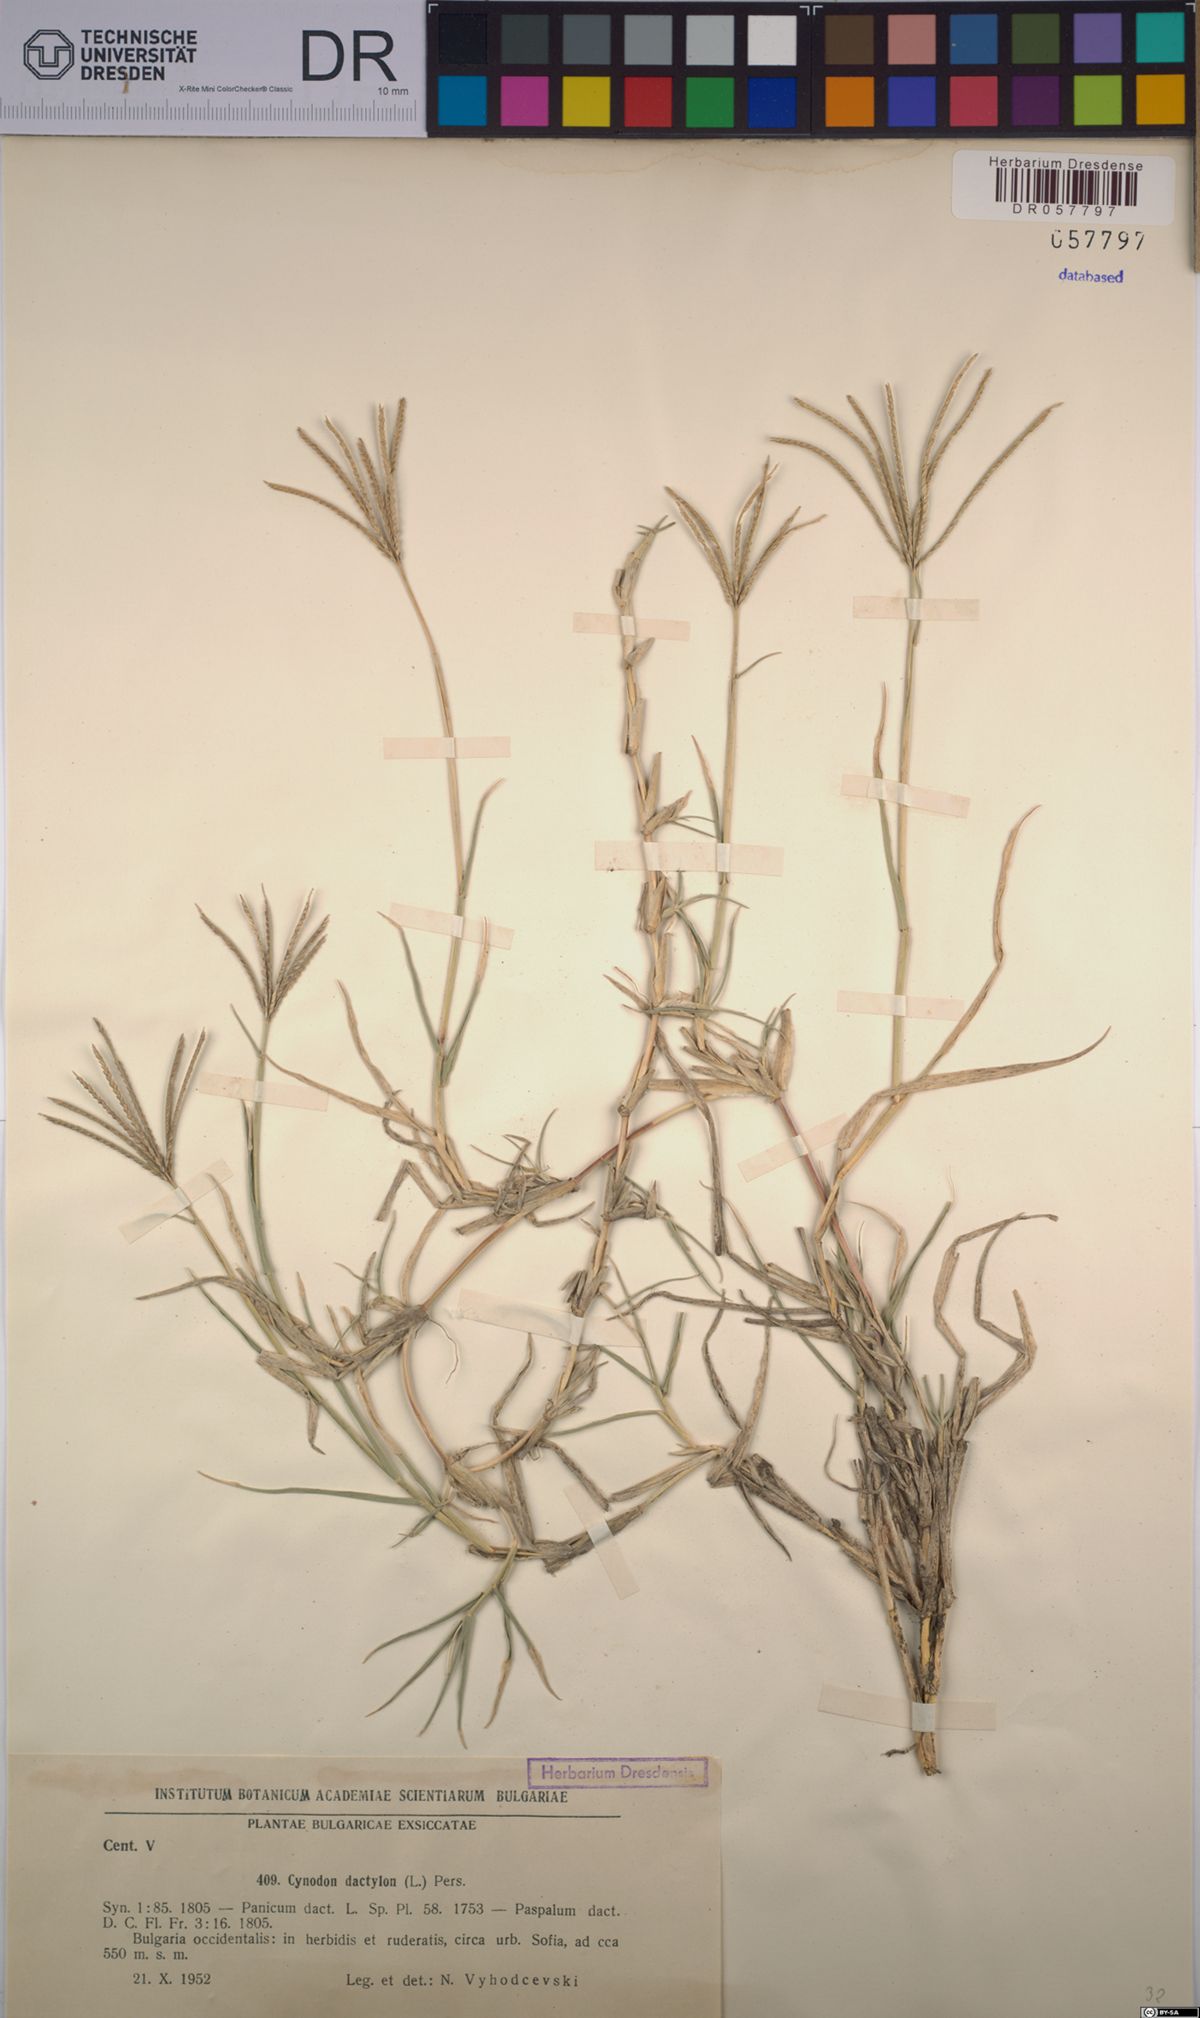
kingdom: Plantae
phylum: Tracheophyta
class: Liliopsida
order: Poales
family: Poaceae
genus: Cynodon
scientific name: Cynodon dactylon
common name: Bermuda grass
